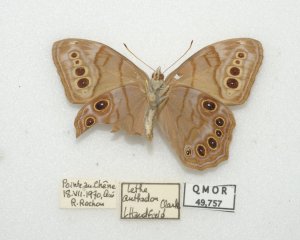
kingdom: Animalia
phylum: Arthropoda
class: Insecta
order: Lepidoptera
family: Nymphalidae
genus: Lethe
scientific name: Lethe anthedon
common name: Northern Pearly-Eye
